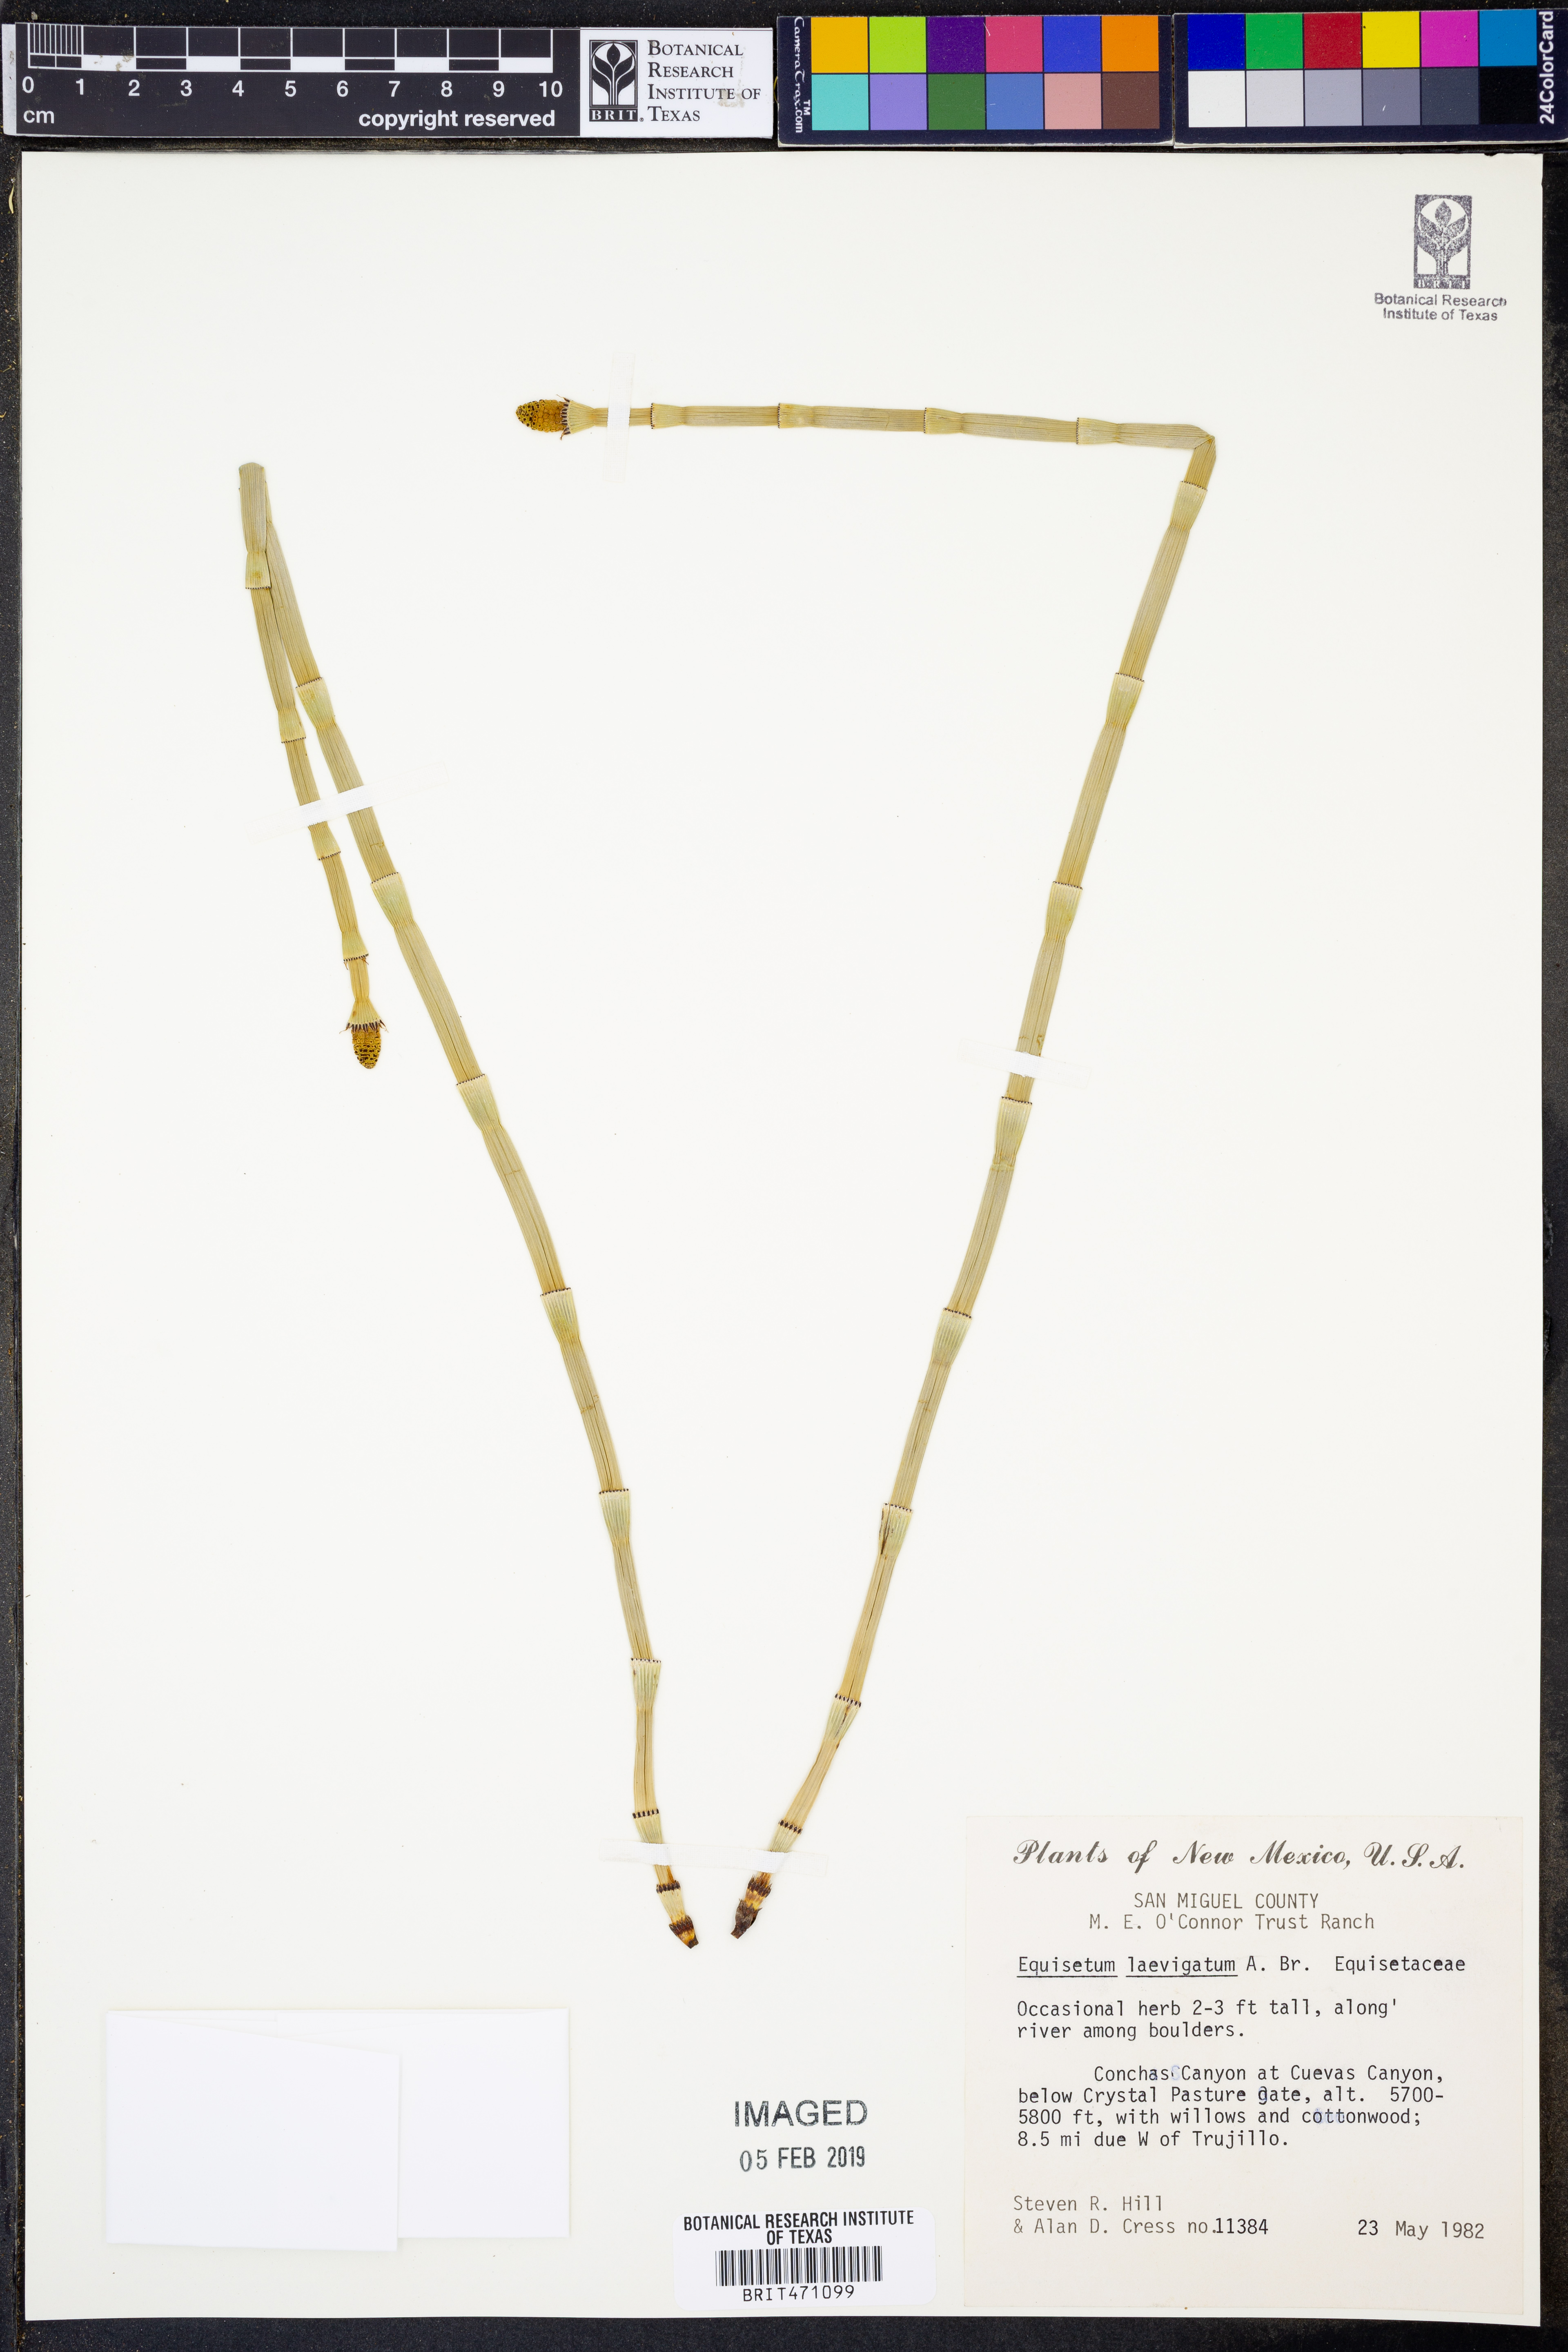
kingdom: Plantae
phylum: Tracheophyta
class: Polypodiopsida
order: Equisetales
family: Equisetaceae
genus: Equisetum
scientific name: Equisetum laevigatum
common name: Smooth scouring-rush
